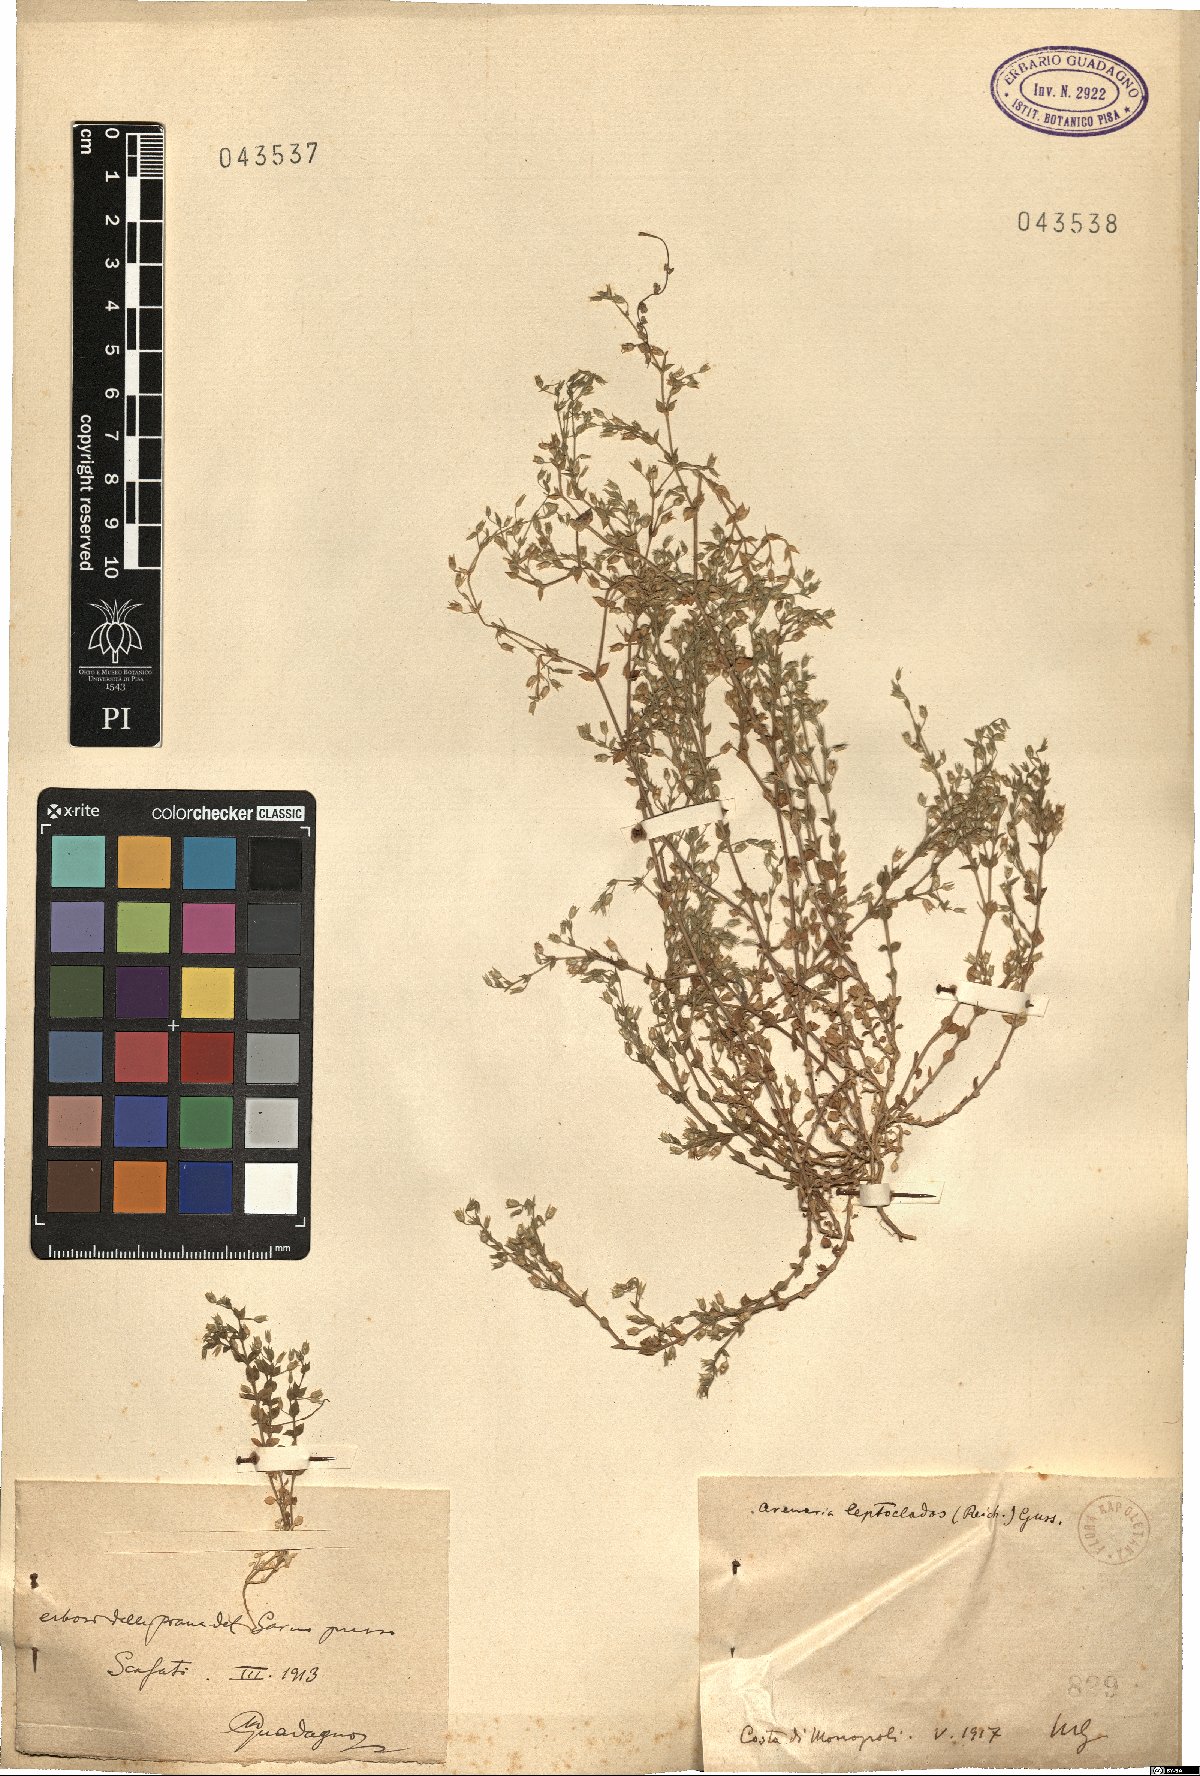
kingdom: Plantae
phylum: Tracheophyta
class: Magnoliopsida
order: Caryophyllales
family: Caryophyllaceae
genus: Arenaria
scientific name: Arenaria leptoclados
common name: Thyme-leaved sandwort
